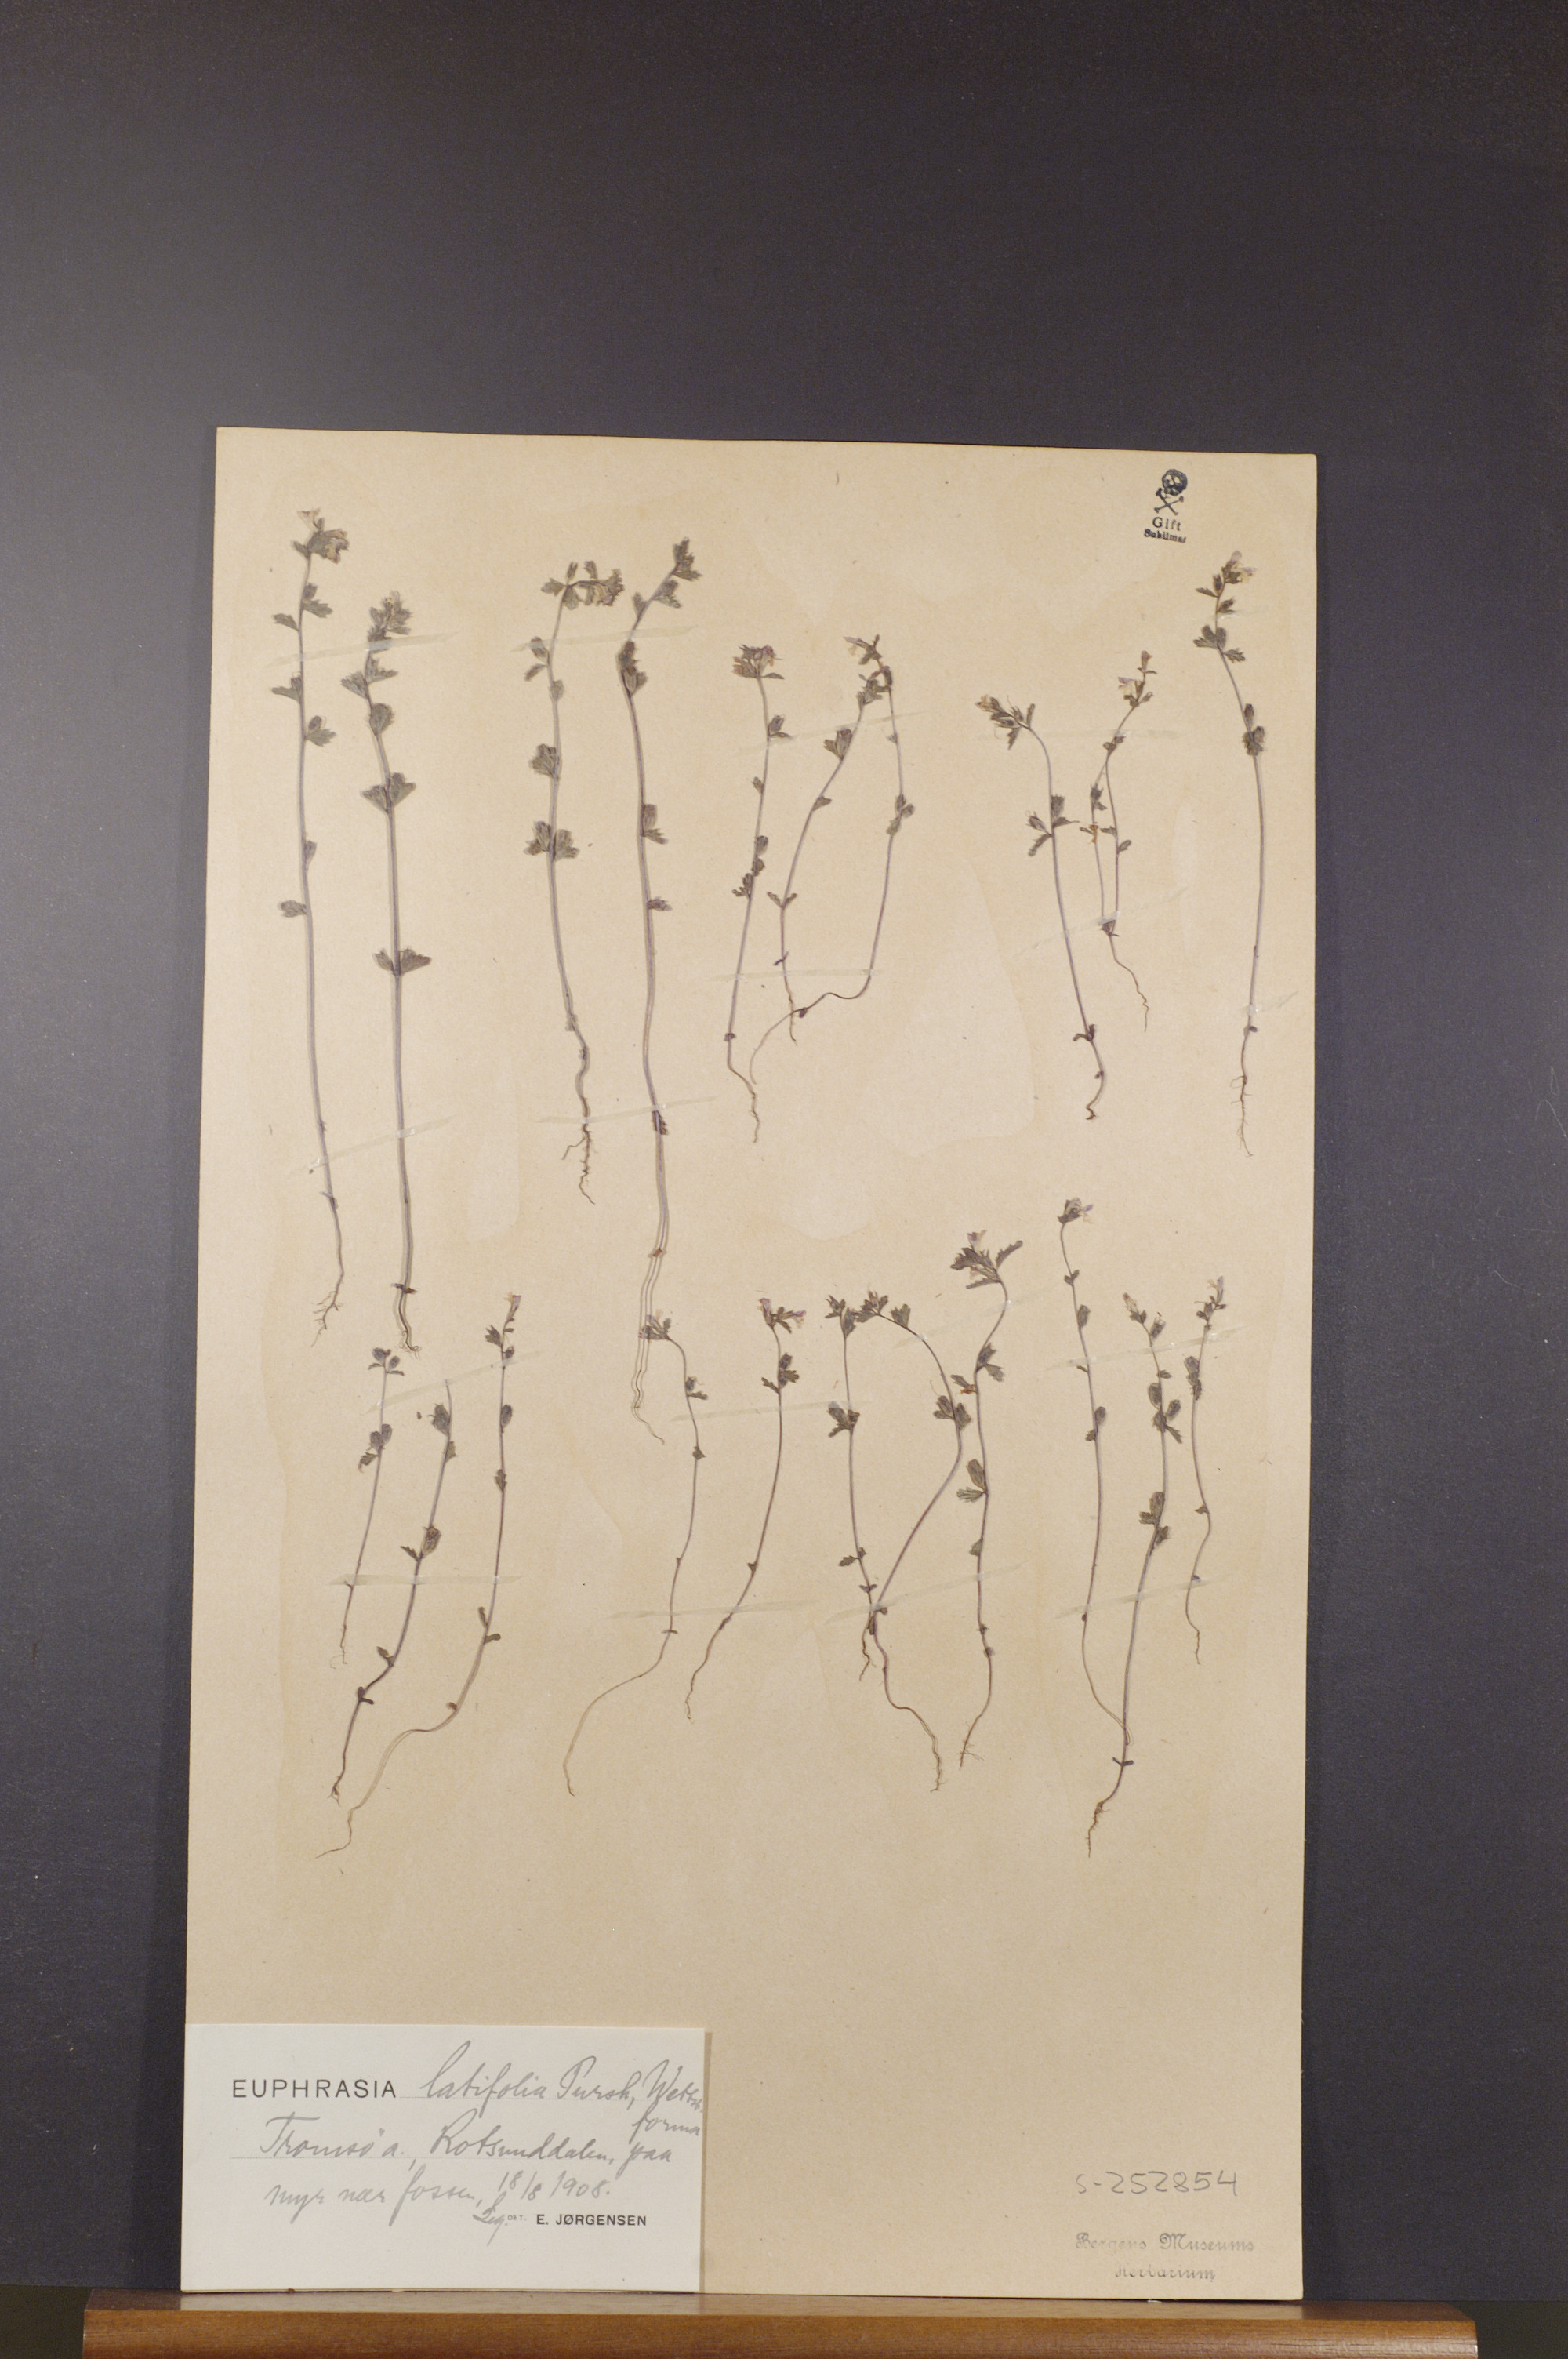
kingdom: Plantae
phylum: Tracheophyta
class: Magnoliopsida
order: Lamiales
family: Orobanchaceae
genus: Euphrasia
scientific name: Euphrasia wettsteinii
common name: Wettstein's eyebright
